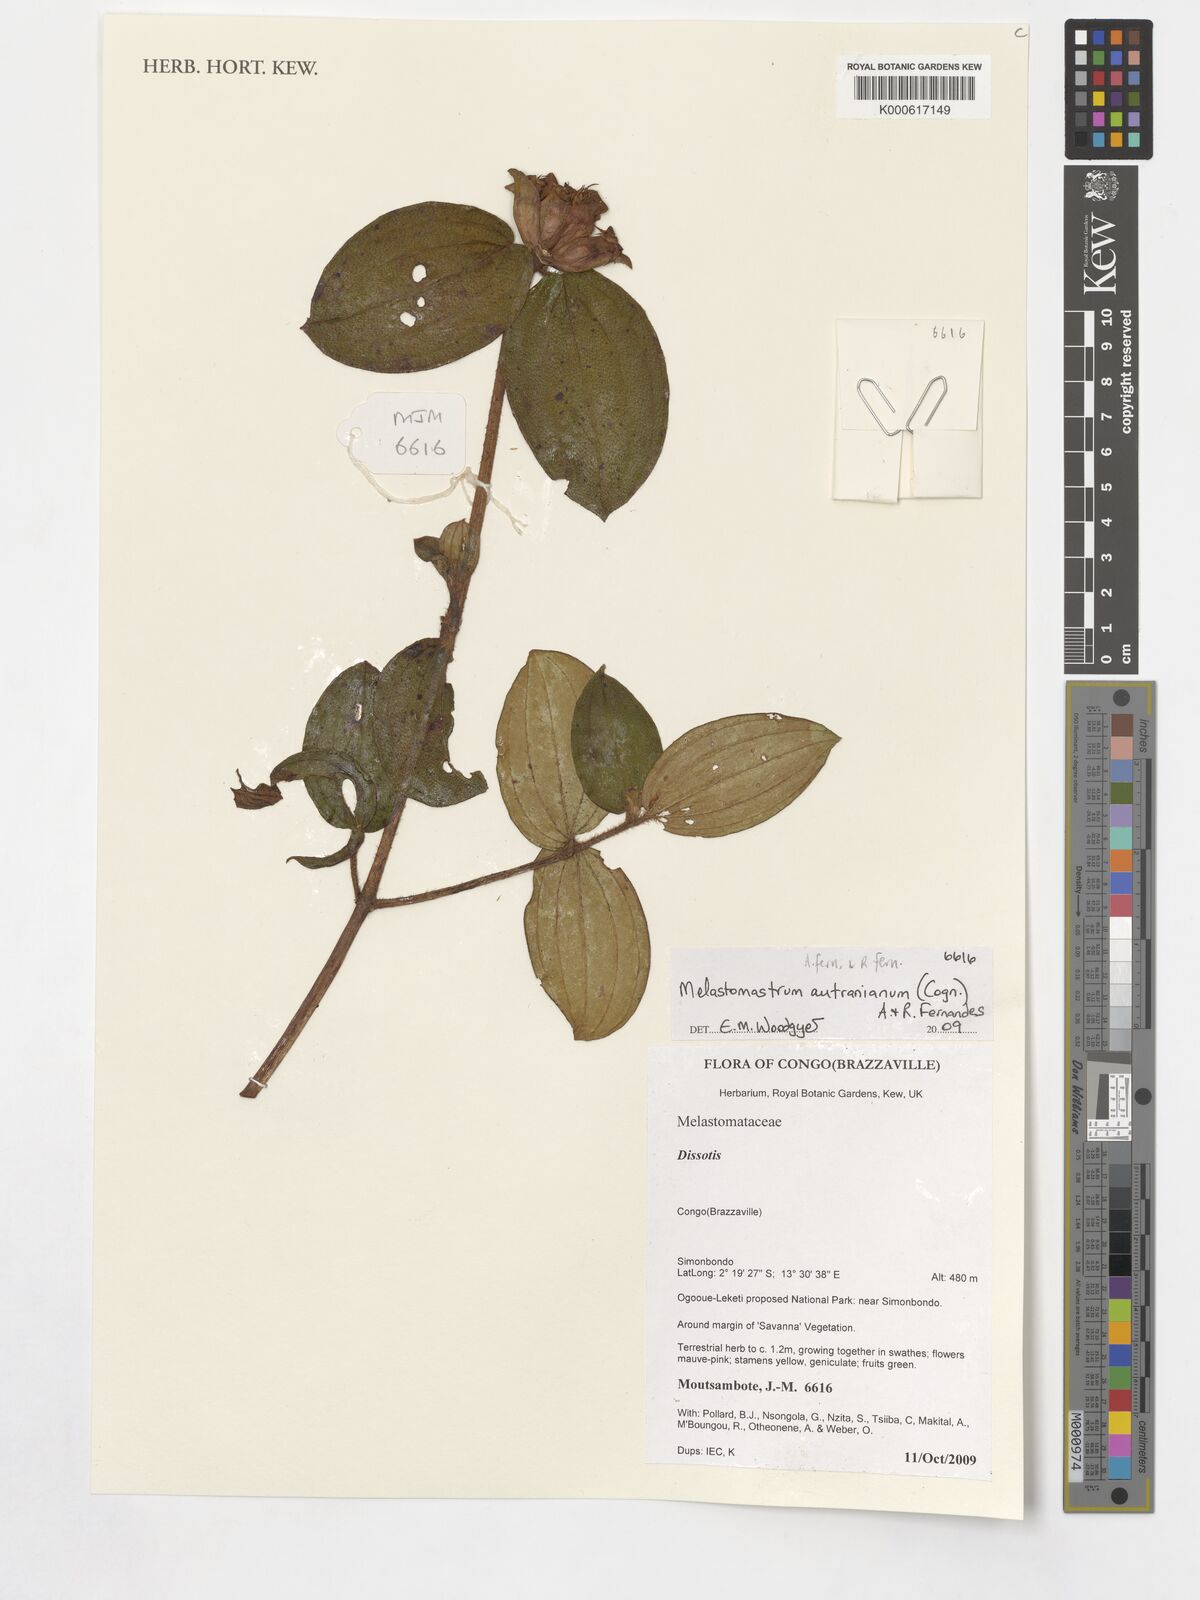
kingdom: Plantae
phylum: Tracheophyta
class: Magnoliopsida
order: Myrtales
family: Melastomataceae
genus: Melastomastrum
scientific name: Melastomastrum autranianum
